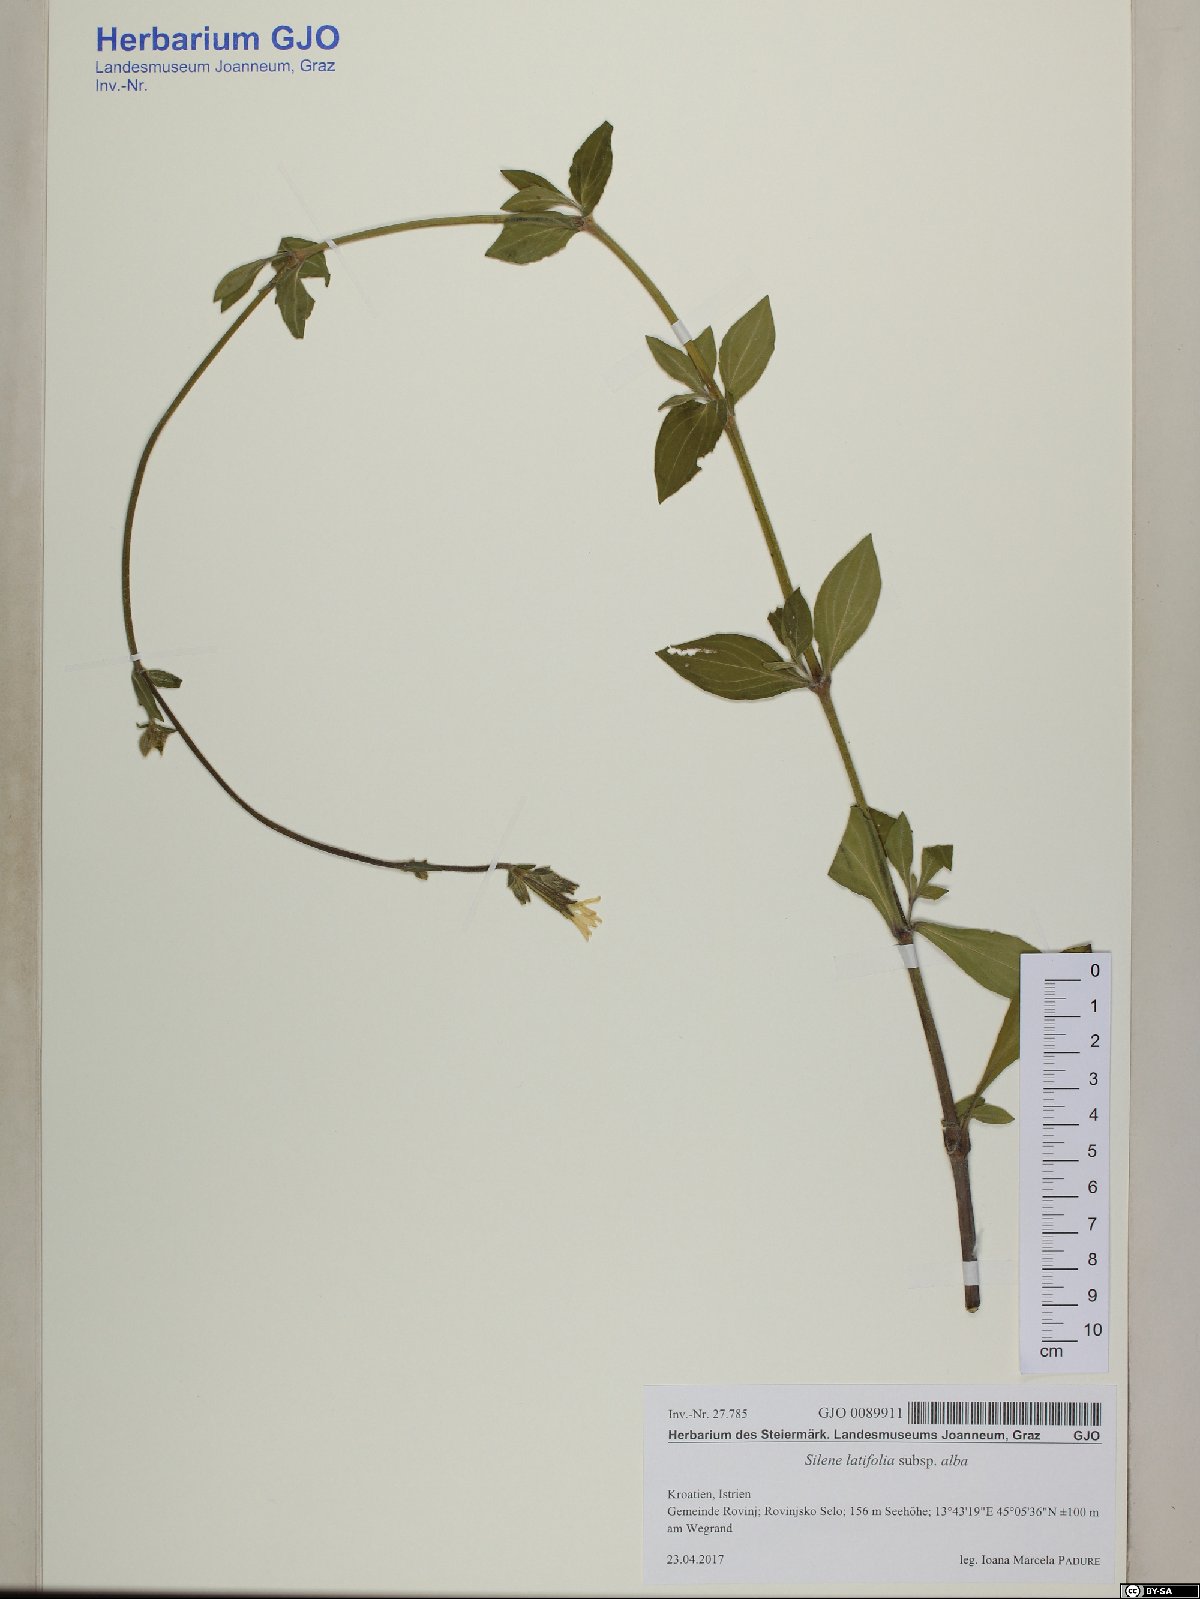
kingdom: Plantae
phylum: Tracheophyta
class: Magnoliopsida
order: Caryophyllales
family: Caryophyllaceae
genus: Silene
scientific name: Silene latifolia
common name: White campion
